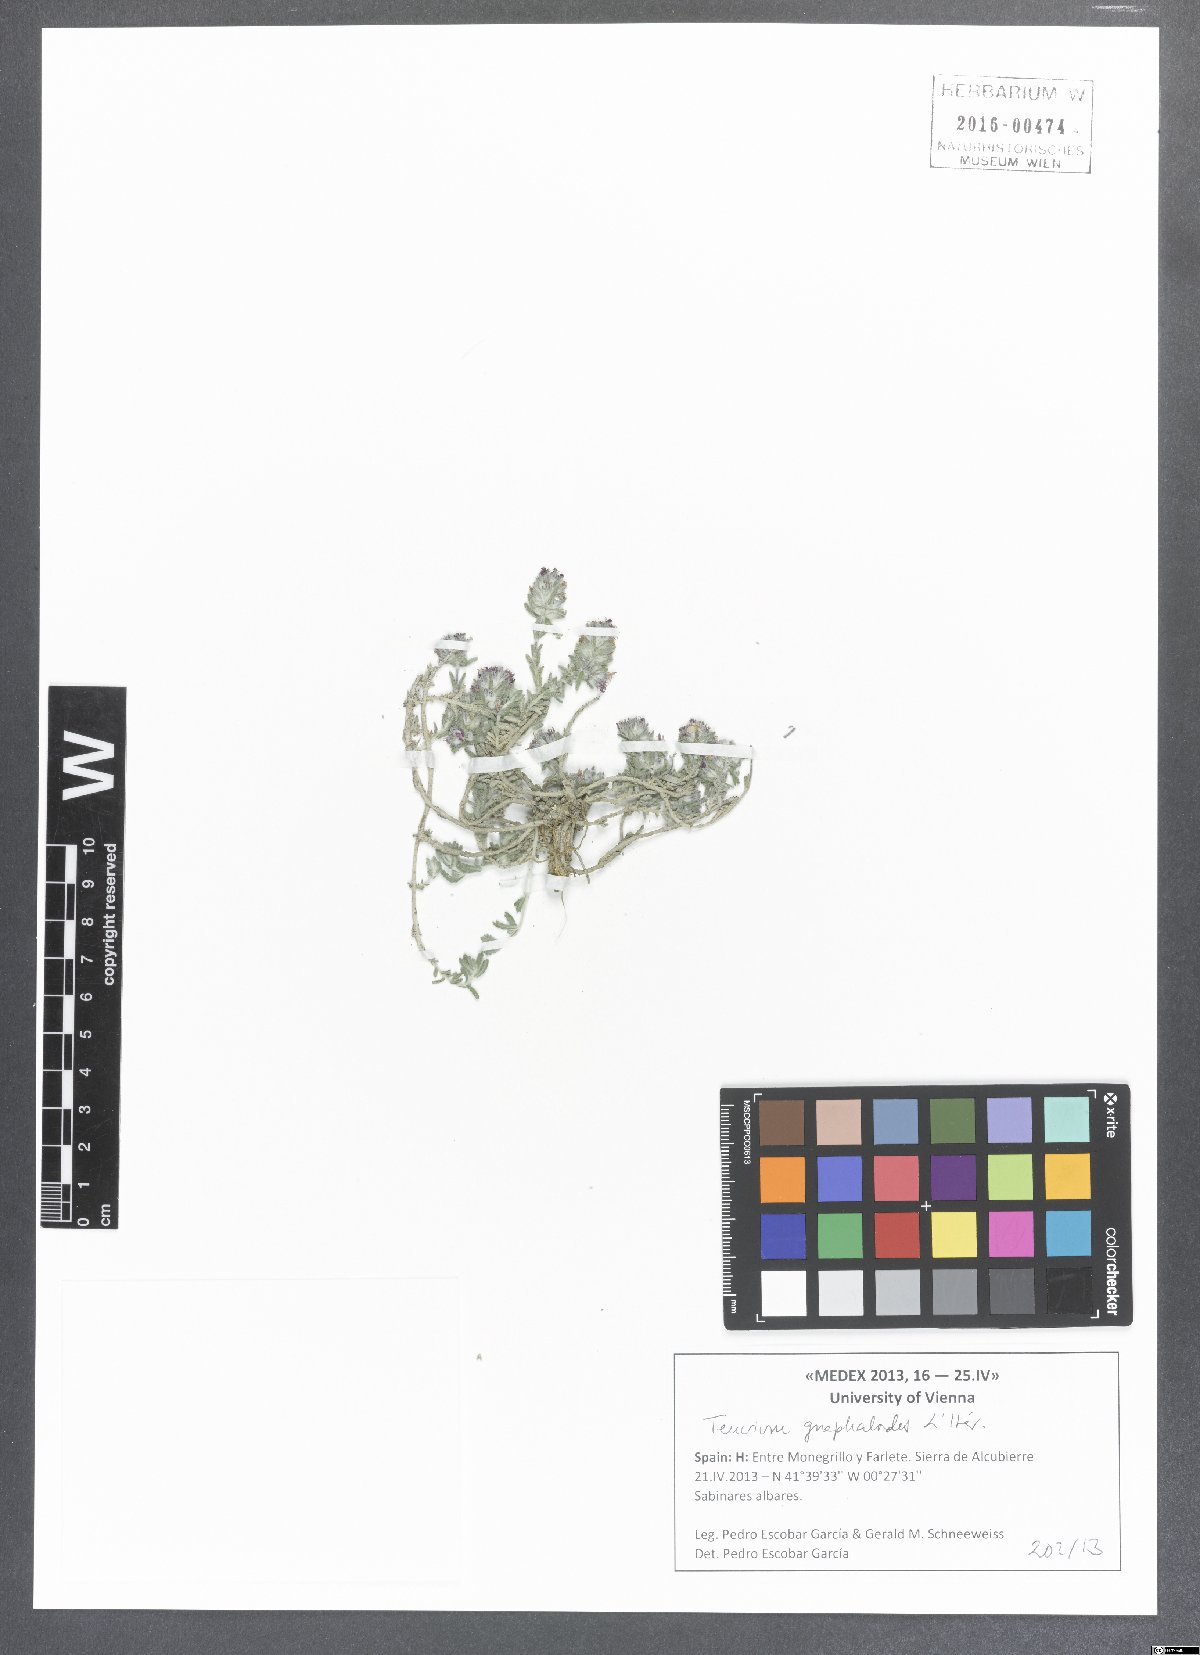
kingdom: Plantae
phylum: Tracheophyta
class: Magnoliopsida
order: Lamiales
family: Lamiaceae
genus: Teucrium
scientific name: Teucrium gnaphalodes
